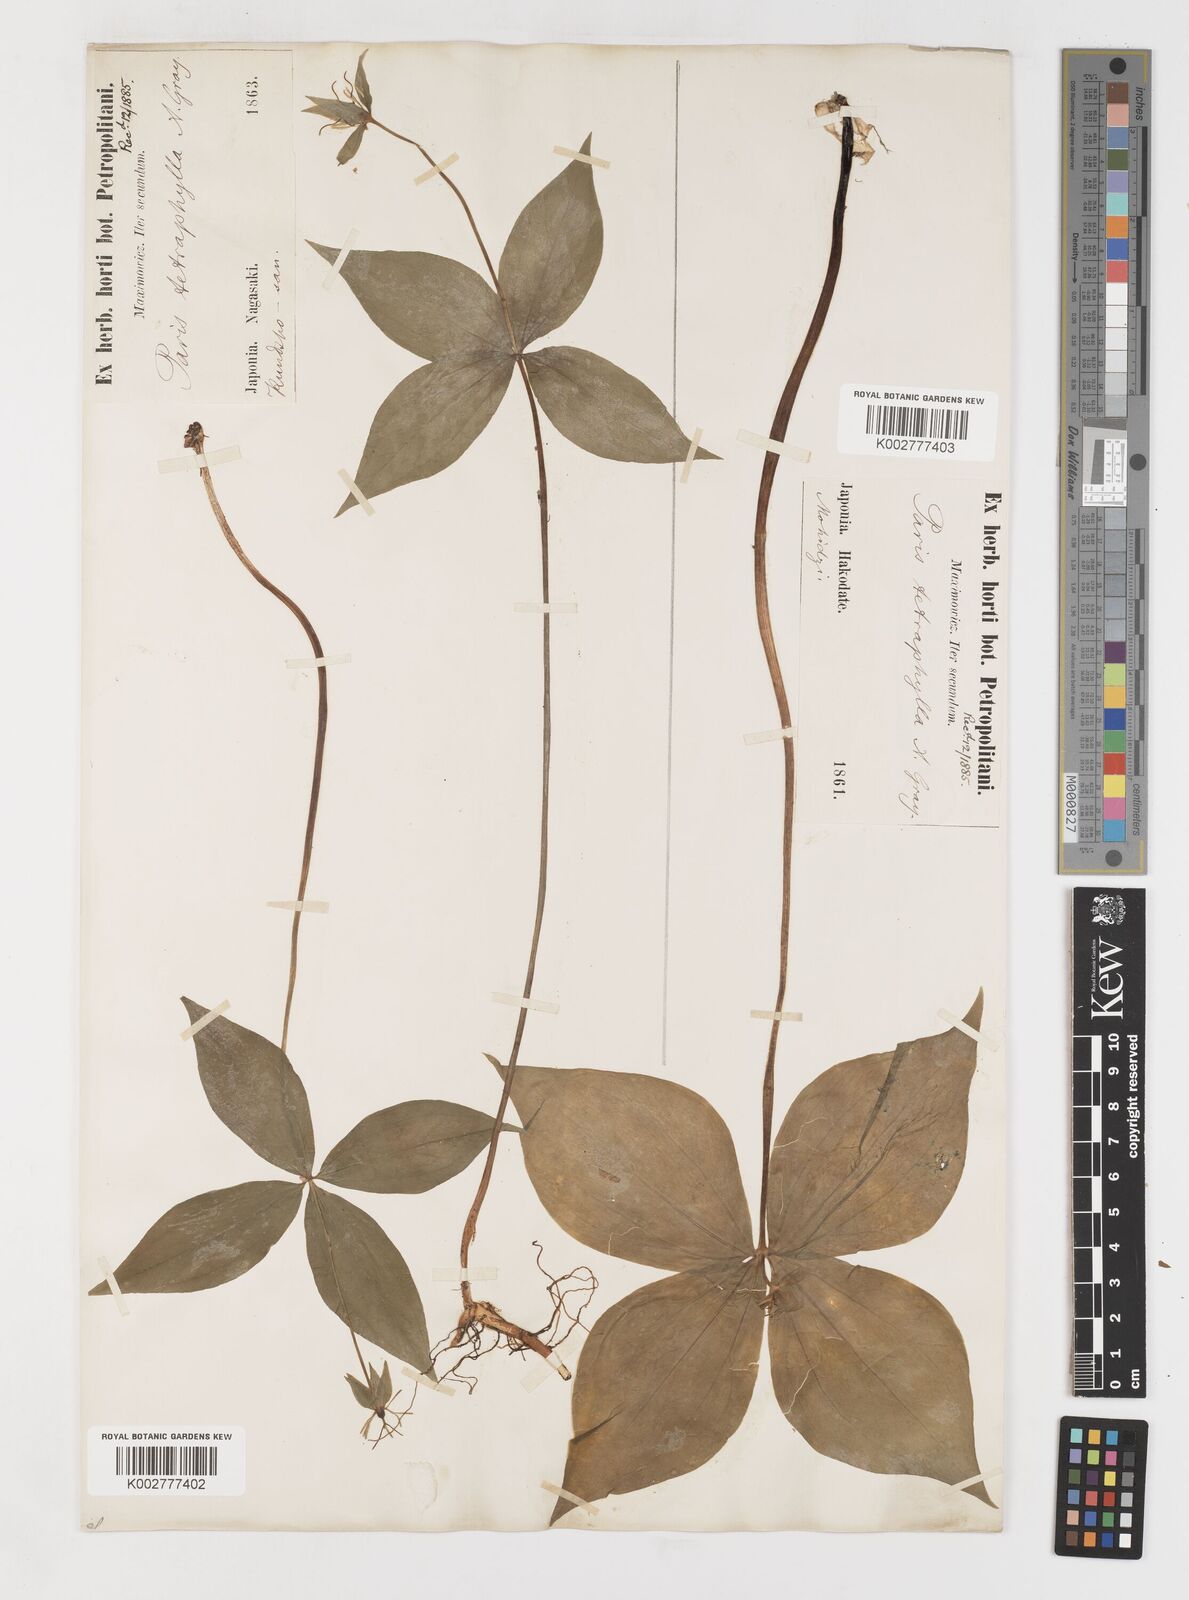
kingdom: Plantae
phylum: Tracheophyta
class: Liliopsida
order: Liliales
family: Melanthiaceae
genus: Paris
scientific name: Paris tetraphylla
